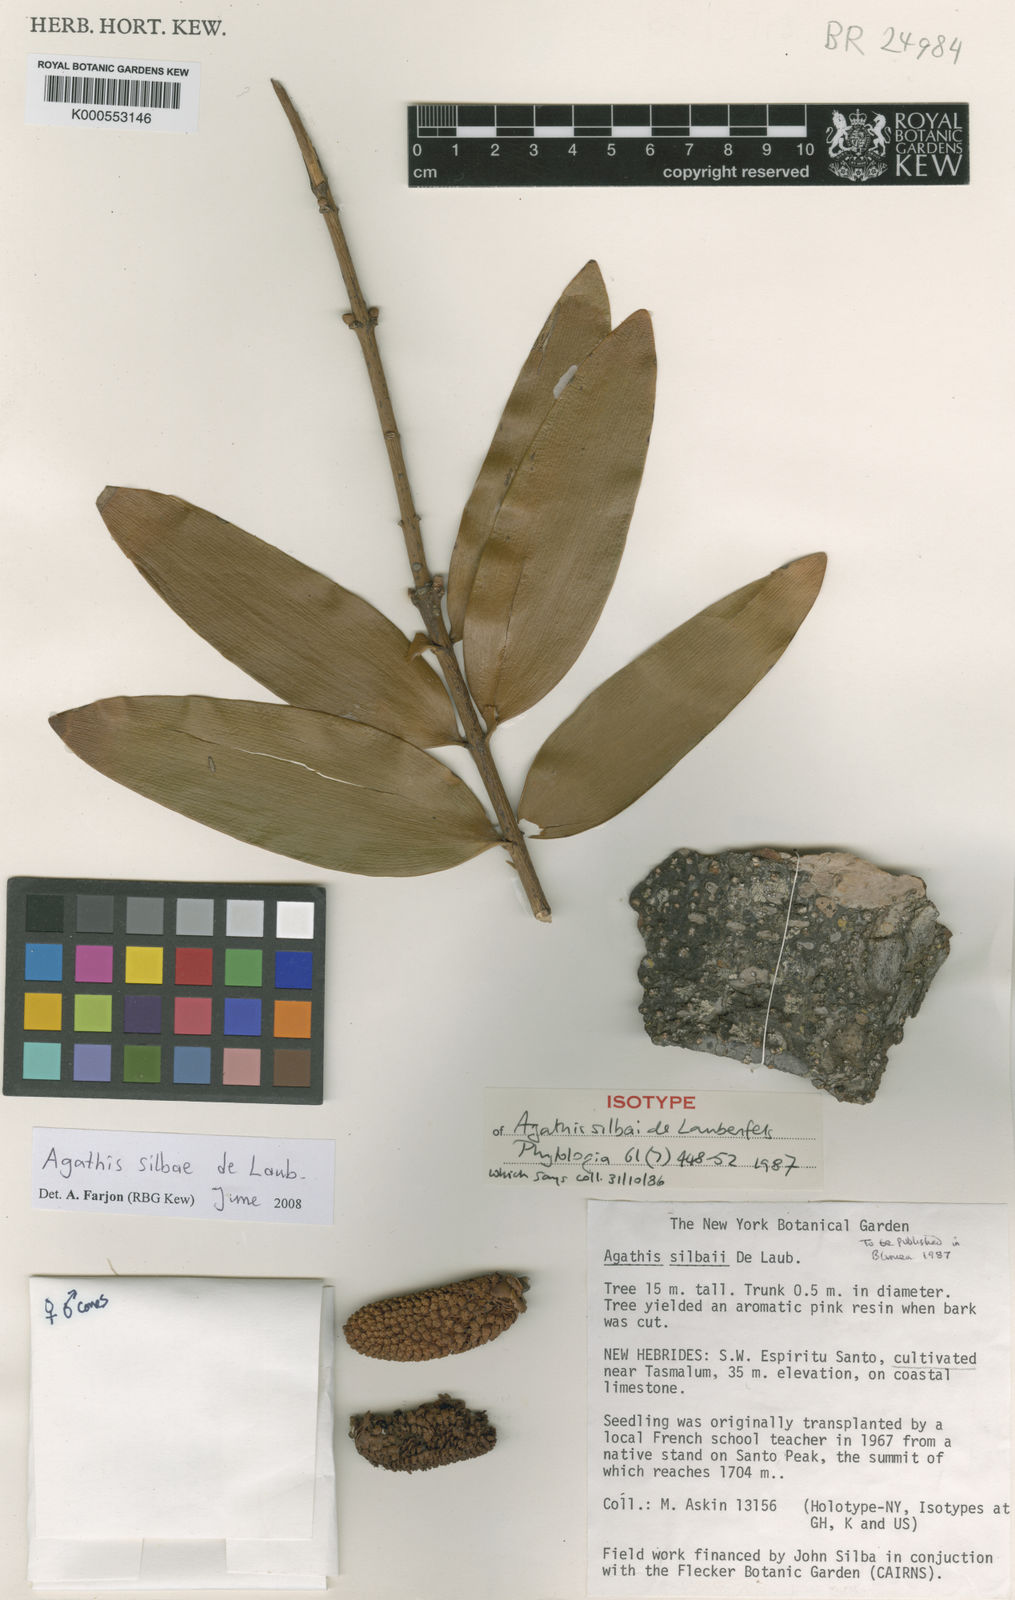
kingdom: Plantae
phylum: Tracheophyta
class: Pinopsida
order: Pinales
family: Araucariaceae
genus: Agathis
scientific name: Agathis silbae
